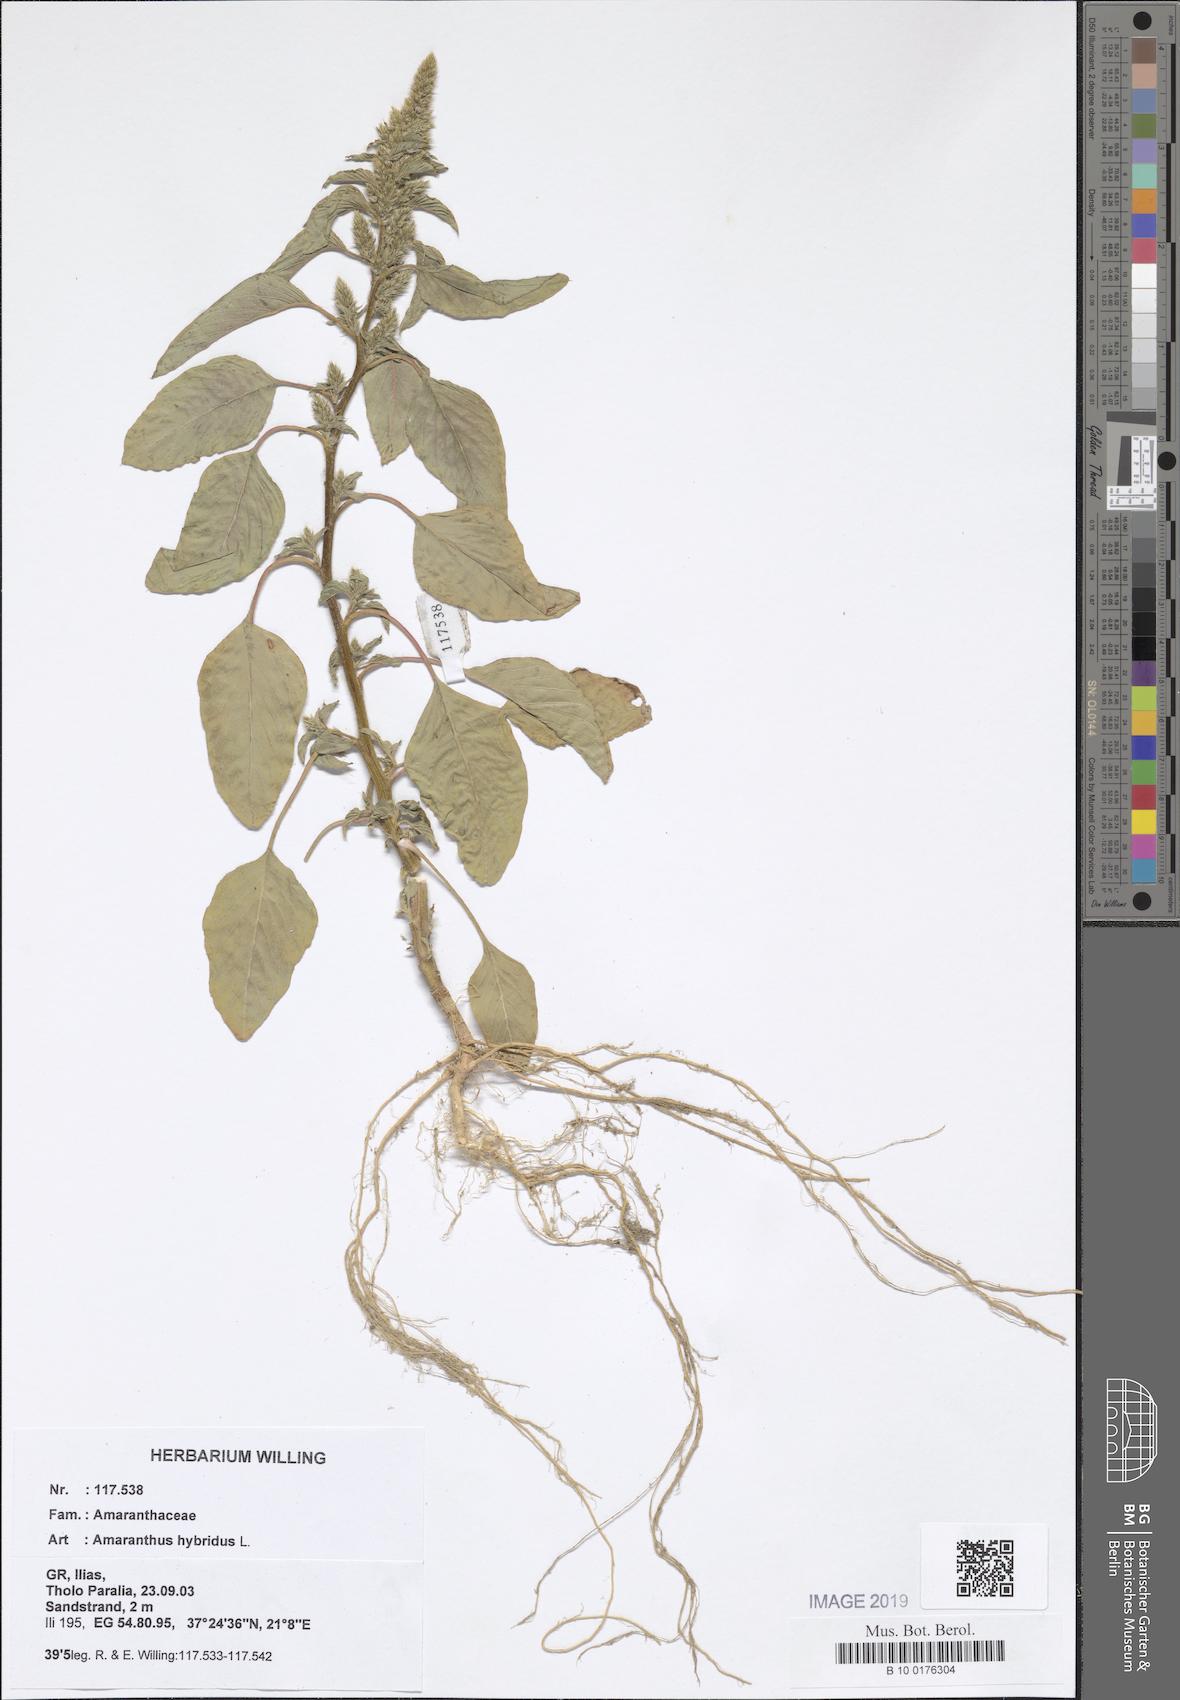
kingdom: Plantae
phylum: Tracheophyta
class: Magnoliopsida
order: Caryophyllales
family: Amaranthaceae
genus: Amaranthus
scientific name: Amaranthus hybridus
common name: Green amaranth
